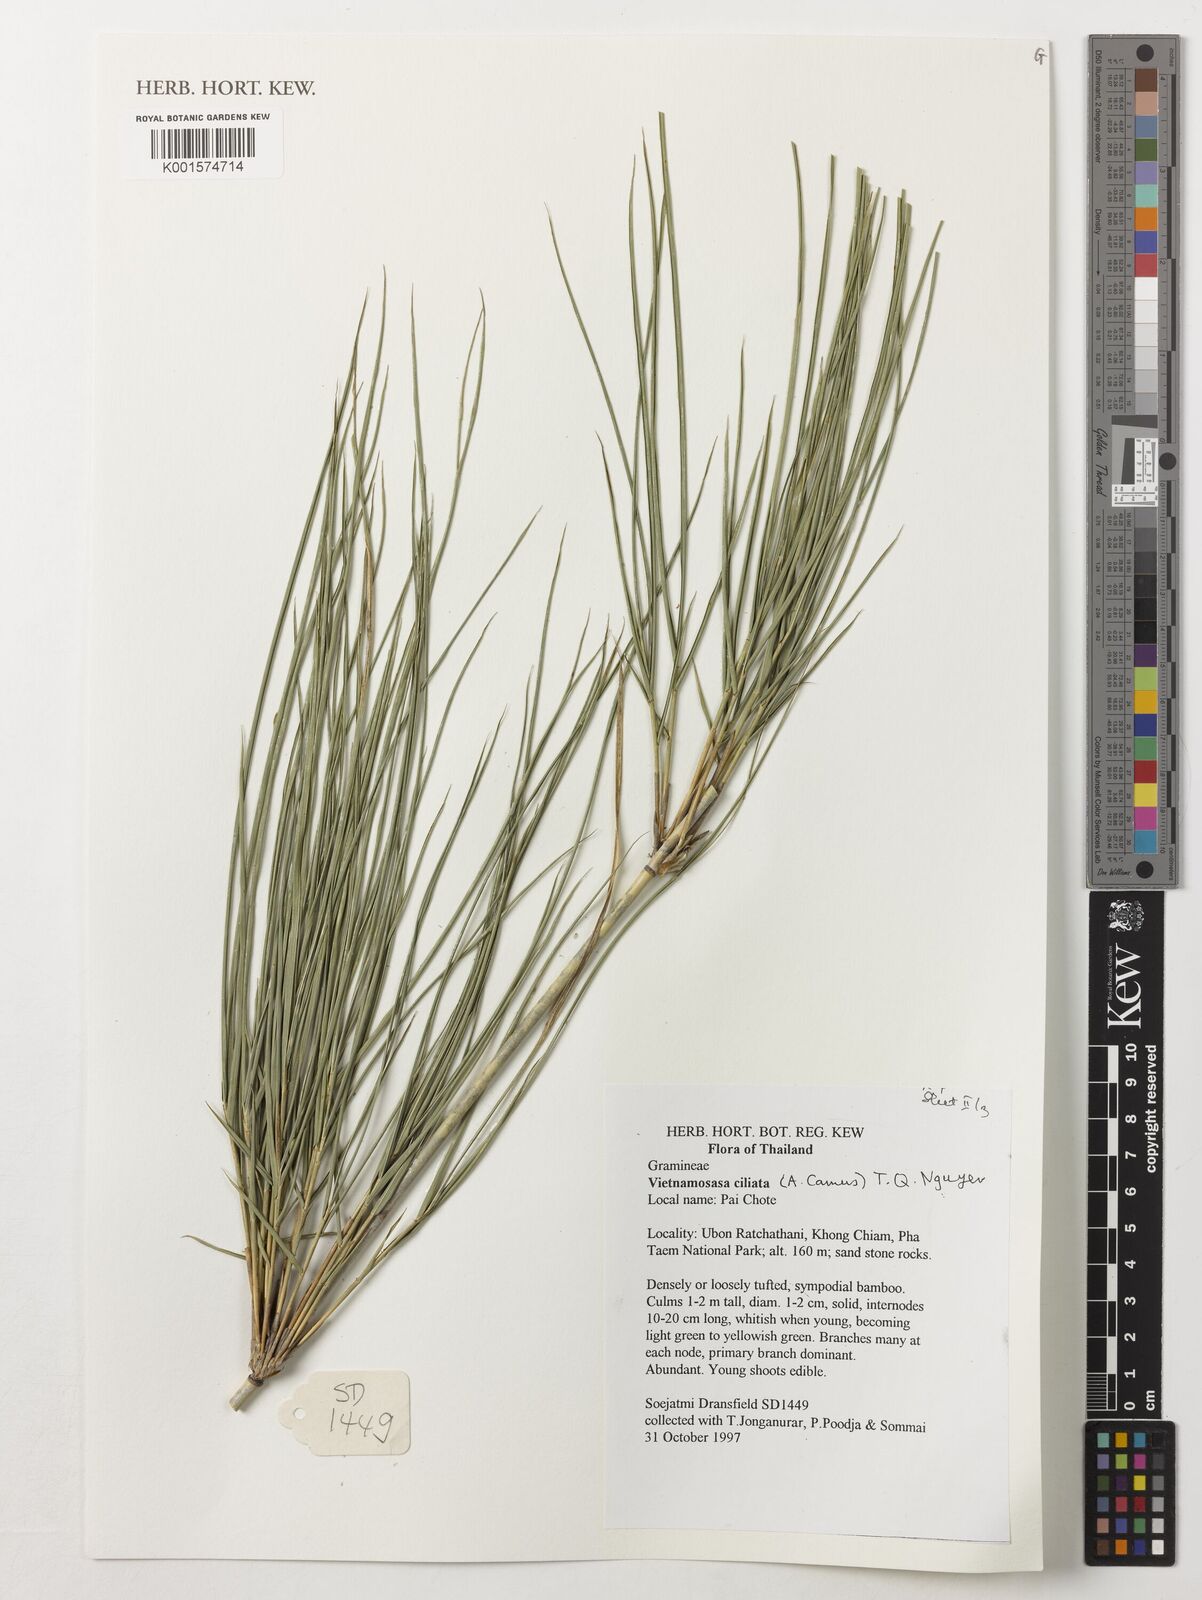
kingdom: Plantae
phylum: Tracheophyta
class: Liliopsida
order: Poales
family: Poaceae
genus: Vietnamosasa
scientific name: Vietnamosasa ciliata
